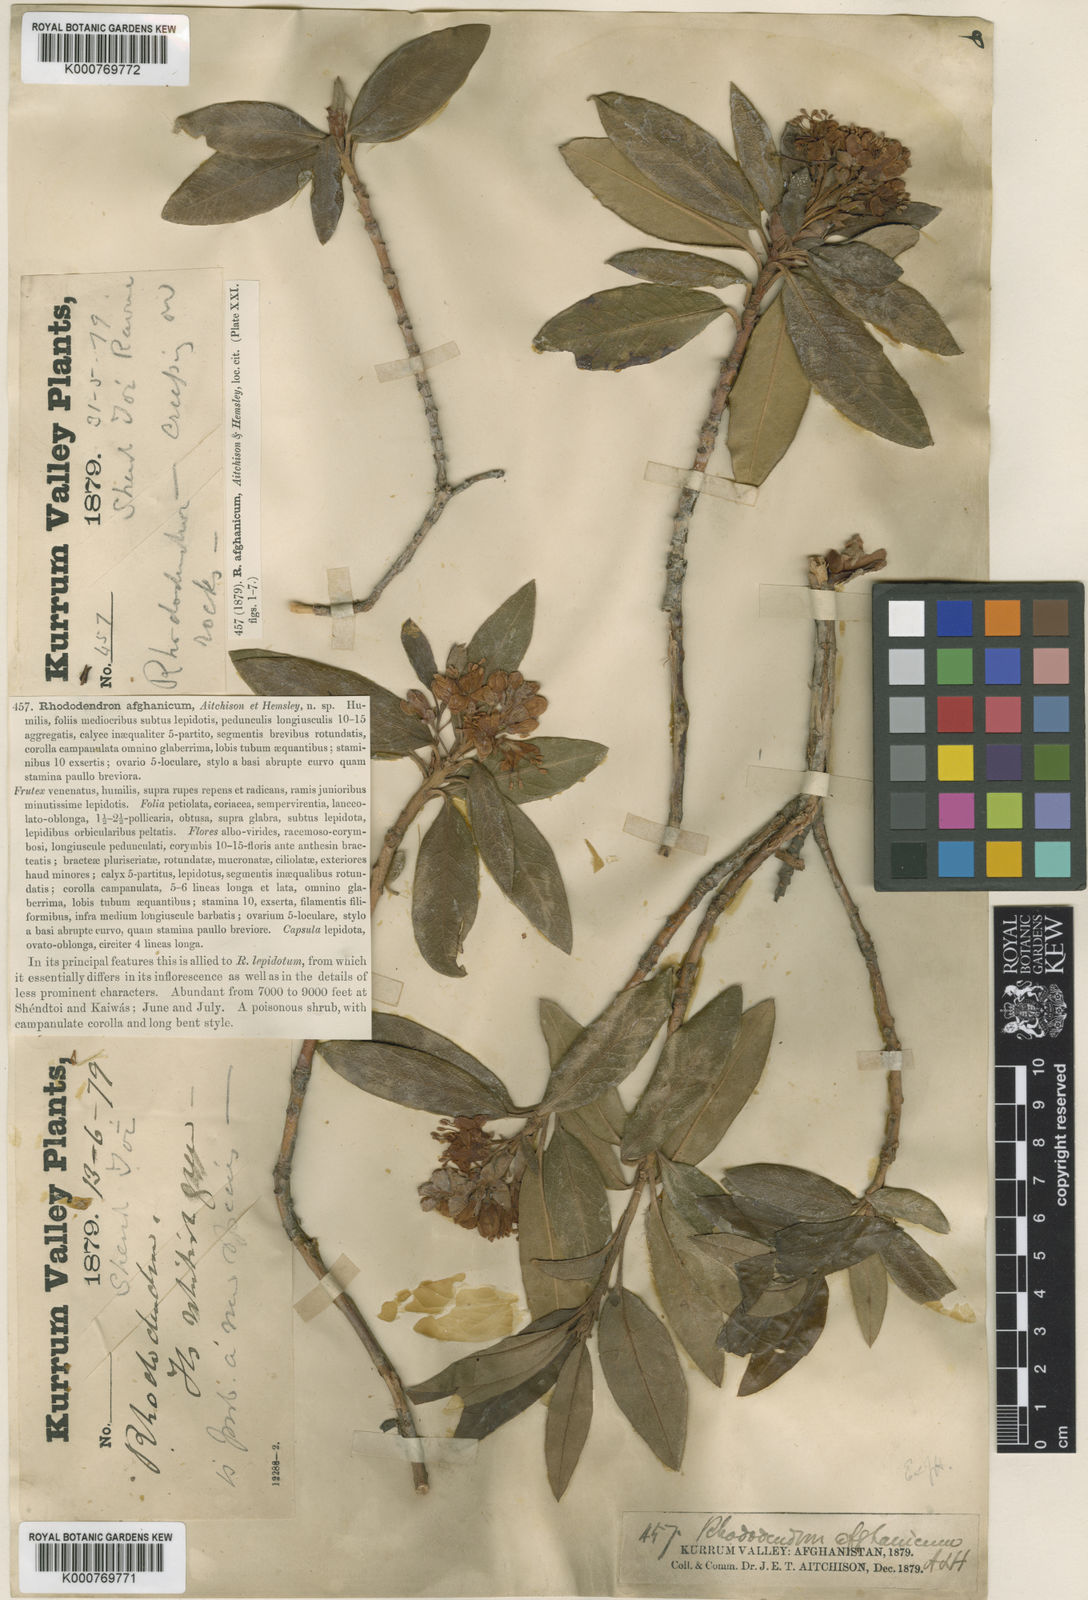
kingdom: Plantae
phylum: Tracheophyta
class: Magnoliopsida
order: Ericales
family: Ericaceae
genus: Rhododendron
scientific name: Rhododendron afghanicum
